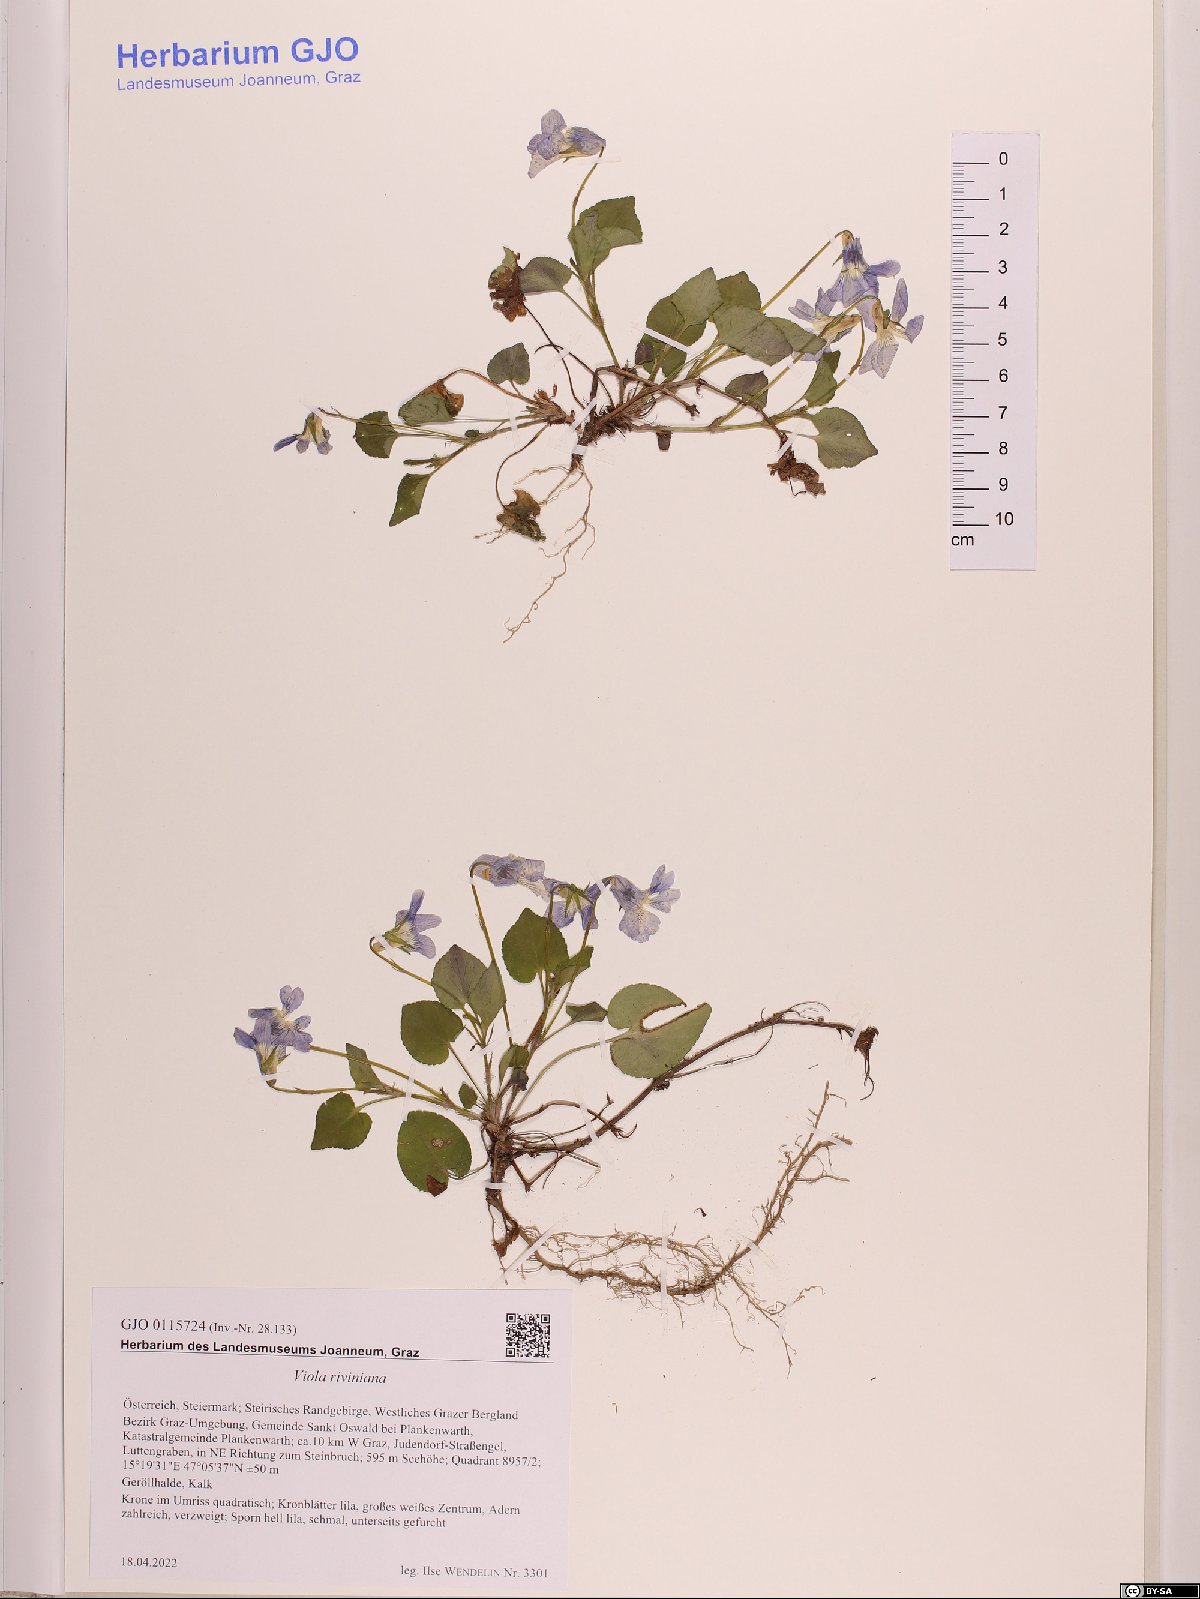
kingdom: Plantae
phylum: Tracheophyta
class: Magnoliopsida
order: Malpighiales
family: Violaceae
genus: Viola
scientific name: Viola riviniana
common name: Common dog-violet
